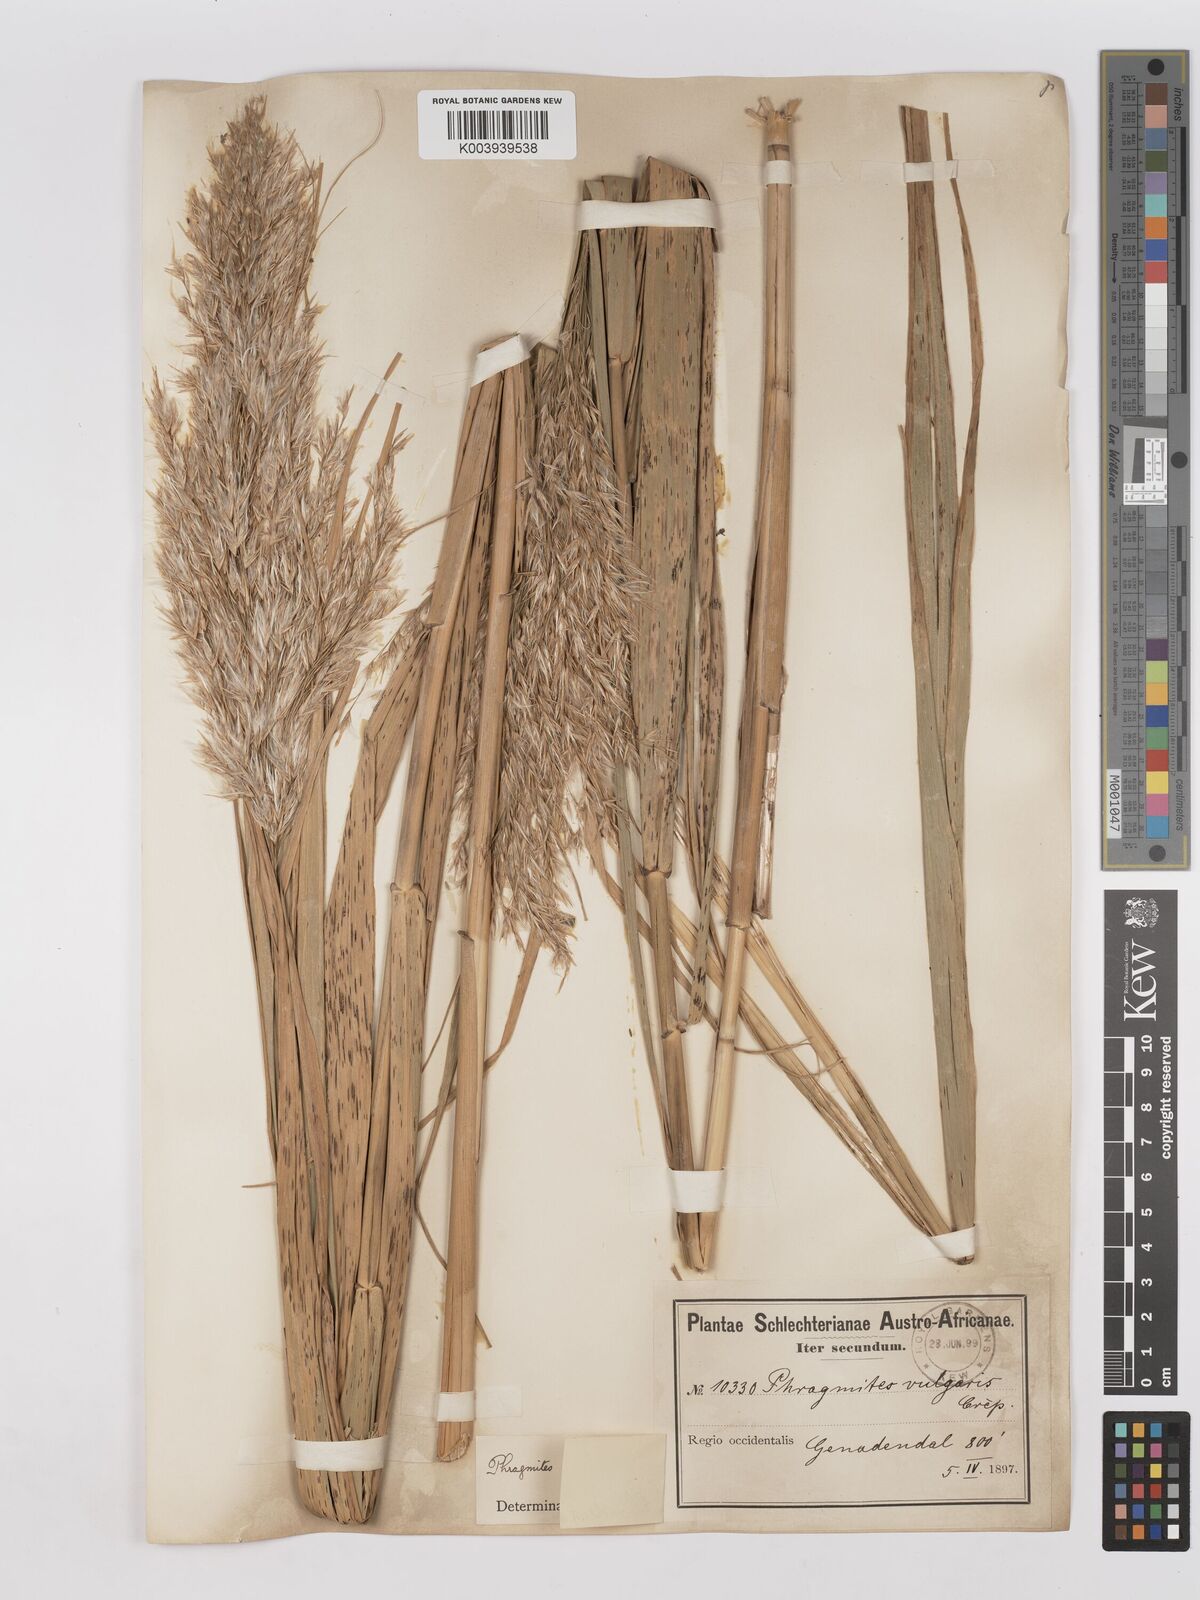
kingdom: Plantae
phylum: Tracheophyta
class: Liliopsida
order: Poales
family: Poaceae
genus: Phragmites
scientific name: Phragmites australis
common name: Common reed
